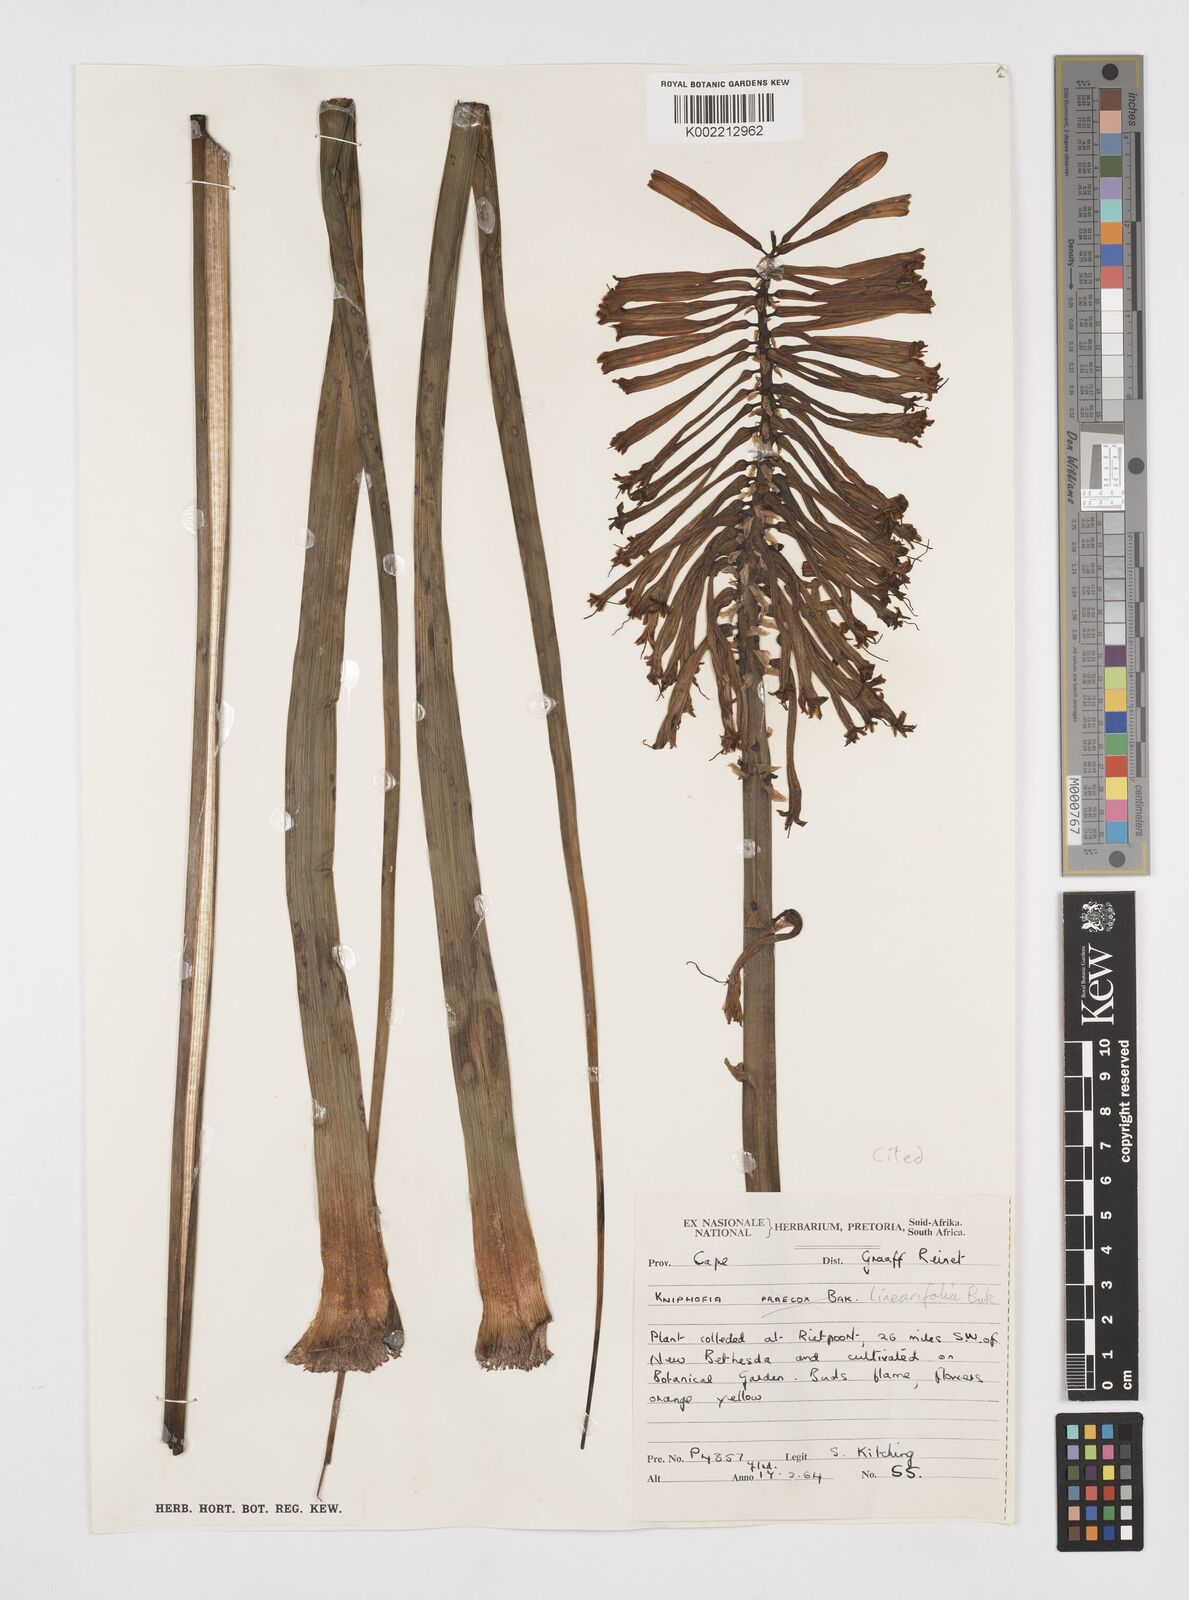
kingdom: Plantae
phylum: Tracheophyta
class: Liliopsida
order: Asparagales
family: Asphodelaceae
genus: Kniphofia
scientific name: Kniphofia linearifolia
